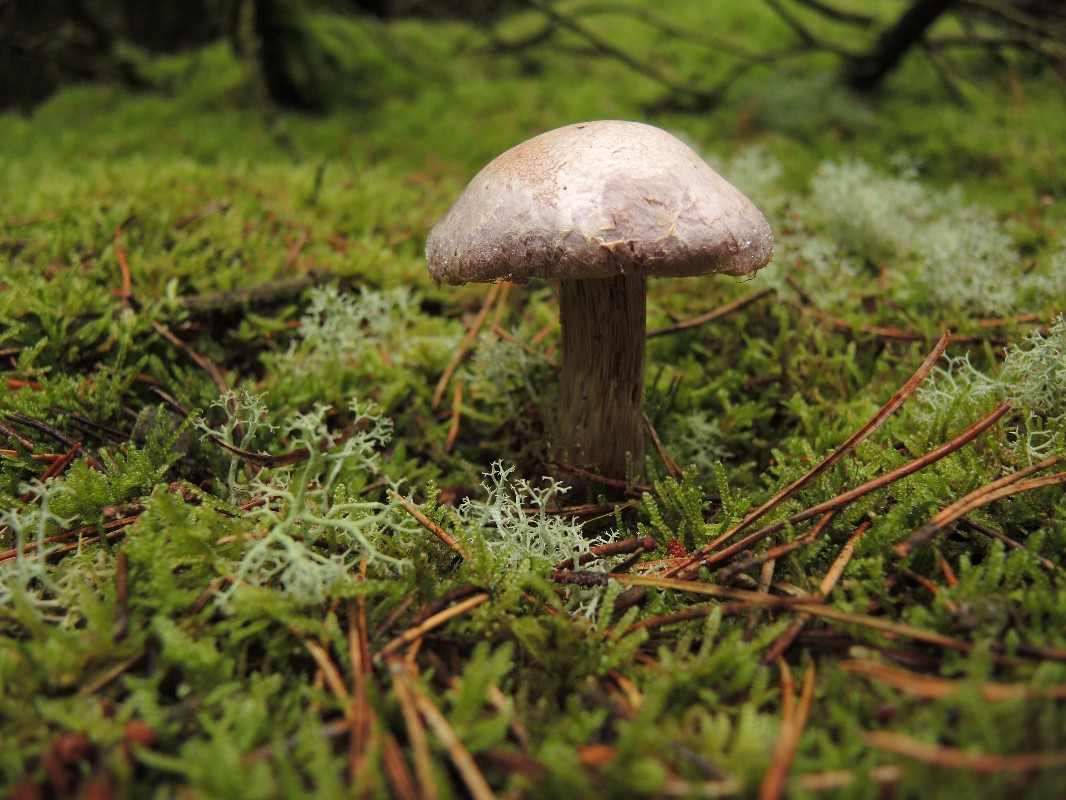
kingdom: Fungi
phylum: Basidiomycota
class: Agaricomycetes
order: Agaricales
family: Cortinariaceae
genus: Cortinarius
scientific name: Cortinarius traganus
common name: safrankødet slørhat
